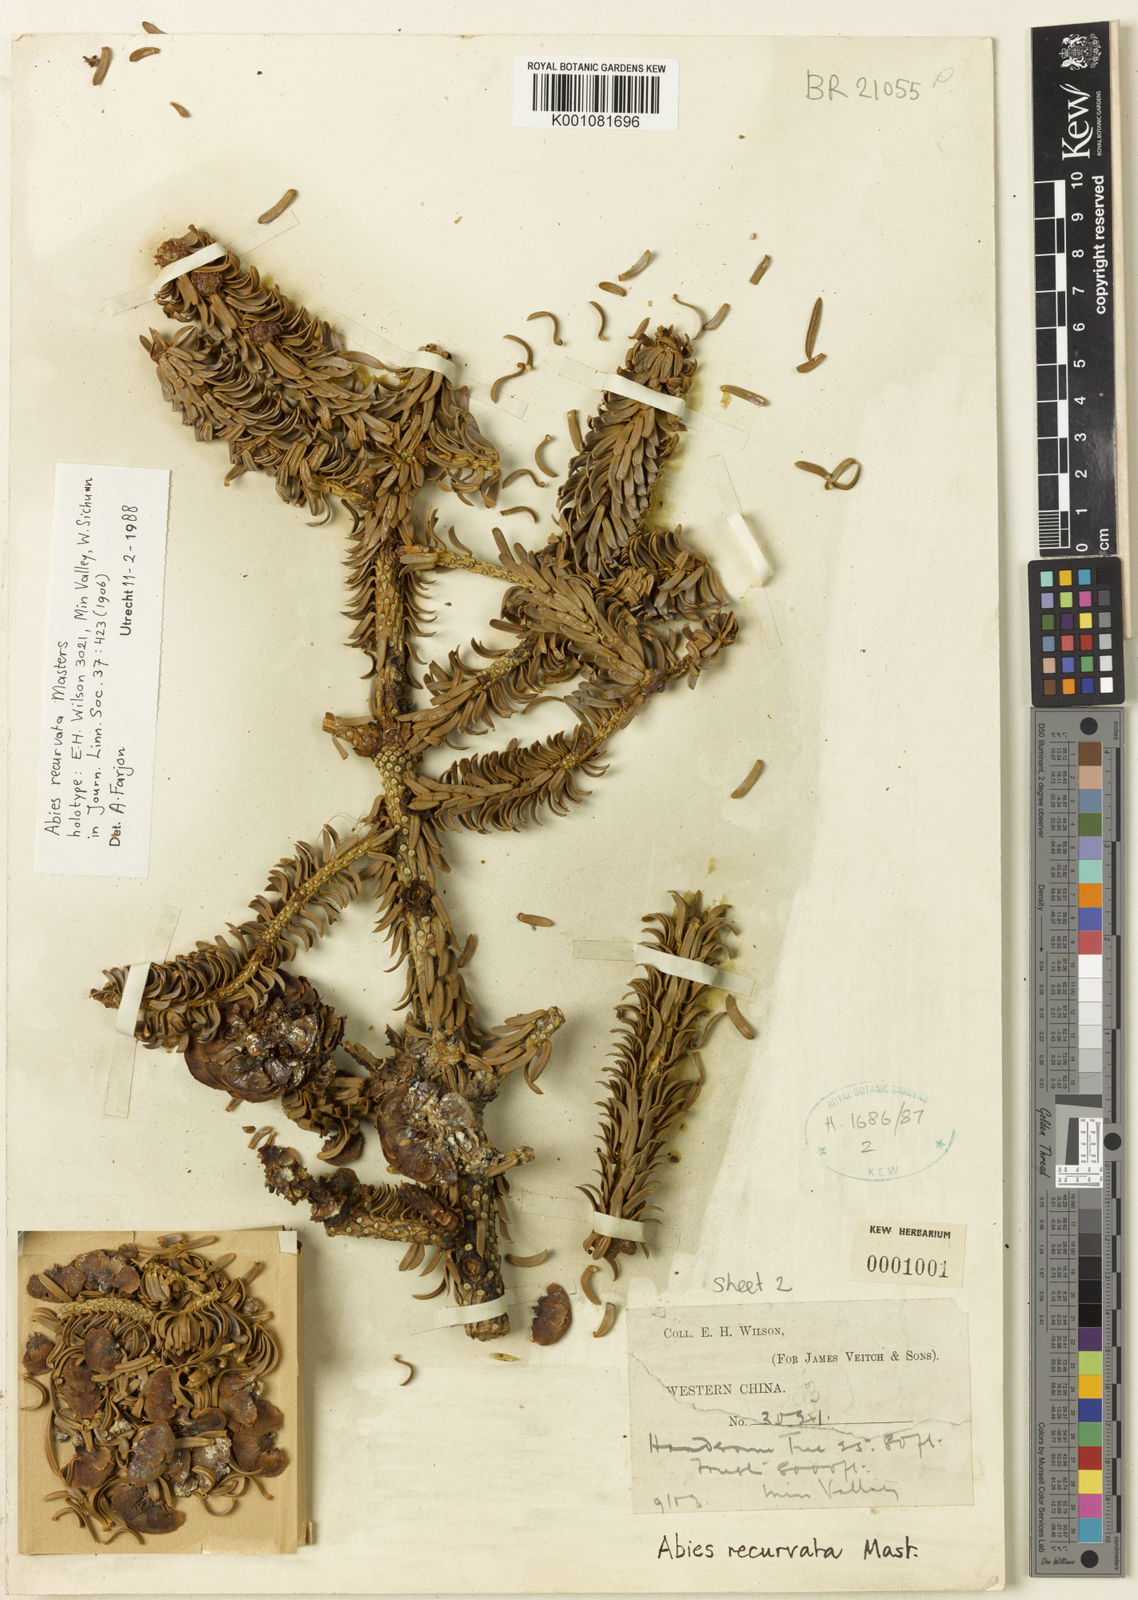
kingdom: Plantae
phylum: Tracheophyta
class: Pinopsida
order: Pinales
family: Pinaceae
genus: Abies
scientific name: Abies recurvata
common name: Min fir
